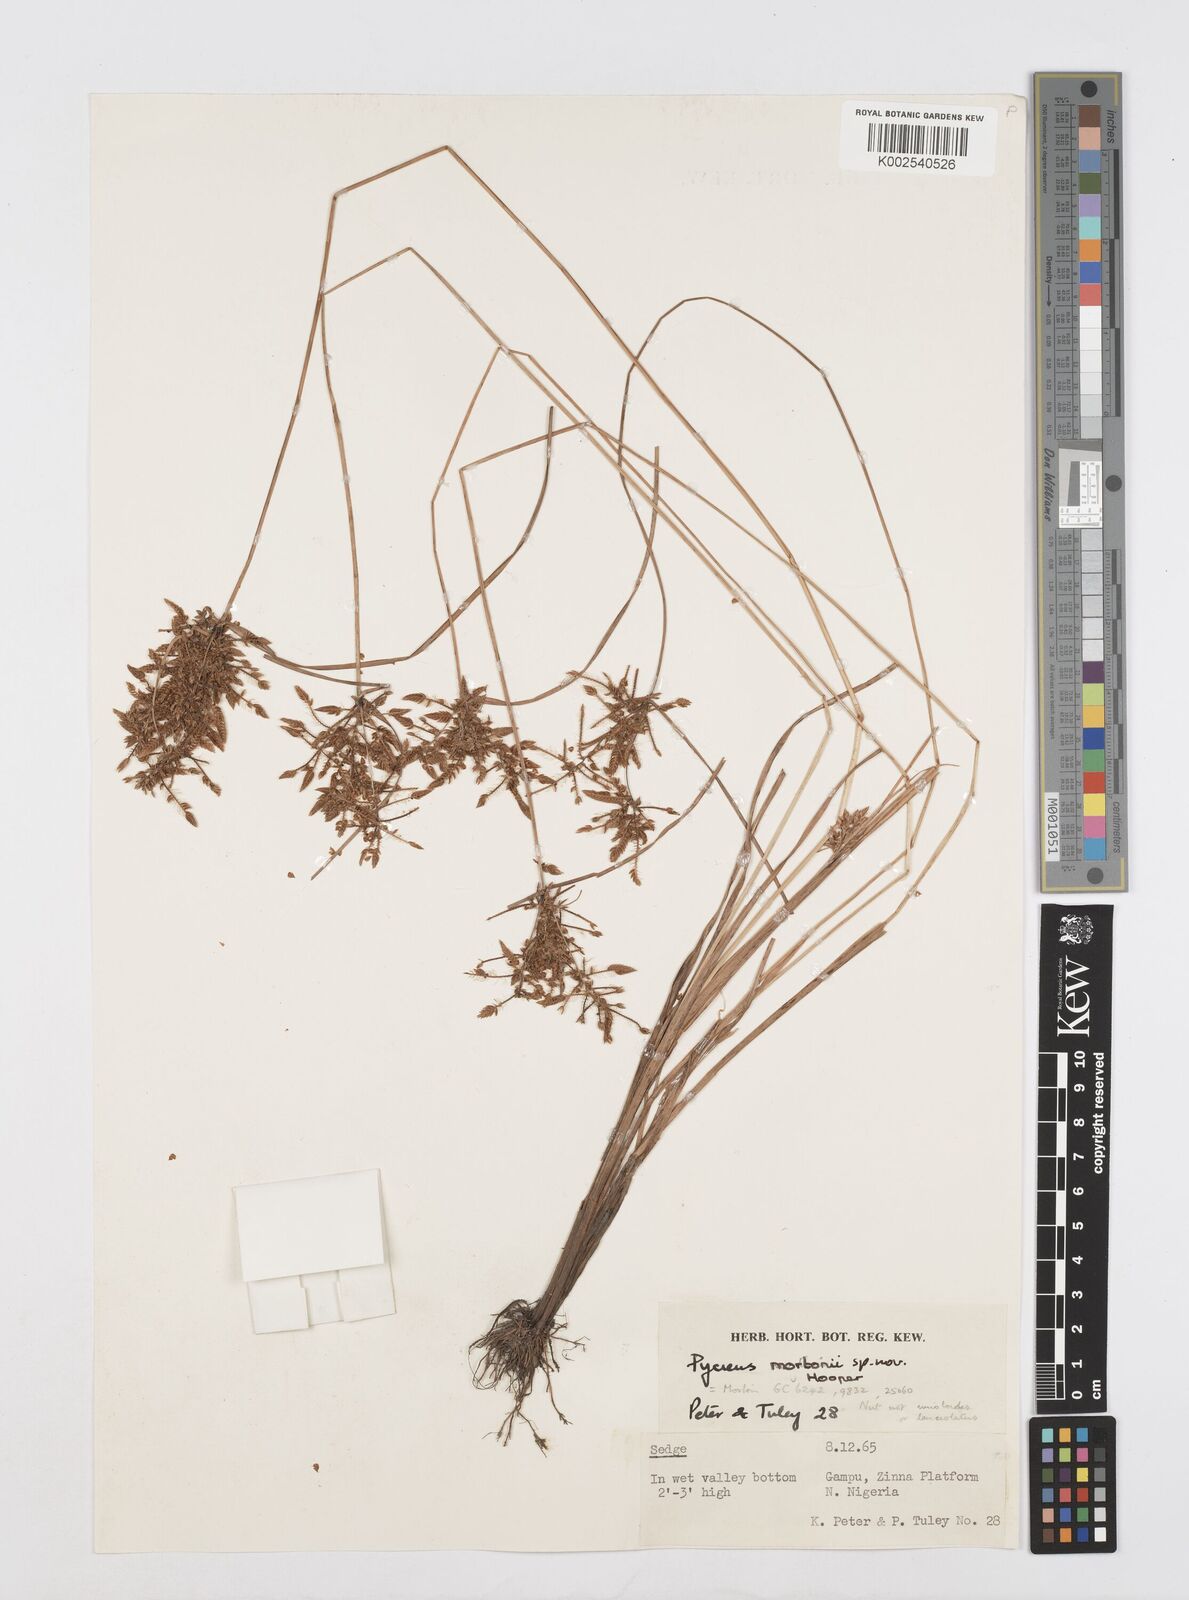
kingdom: Plantae
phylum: Tracheophyta
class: Liliopsida
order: Poales
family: Cyperaceae
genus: Cyperus
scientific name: Cyperus mortonii
